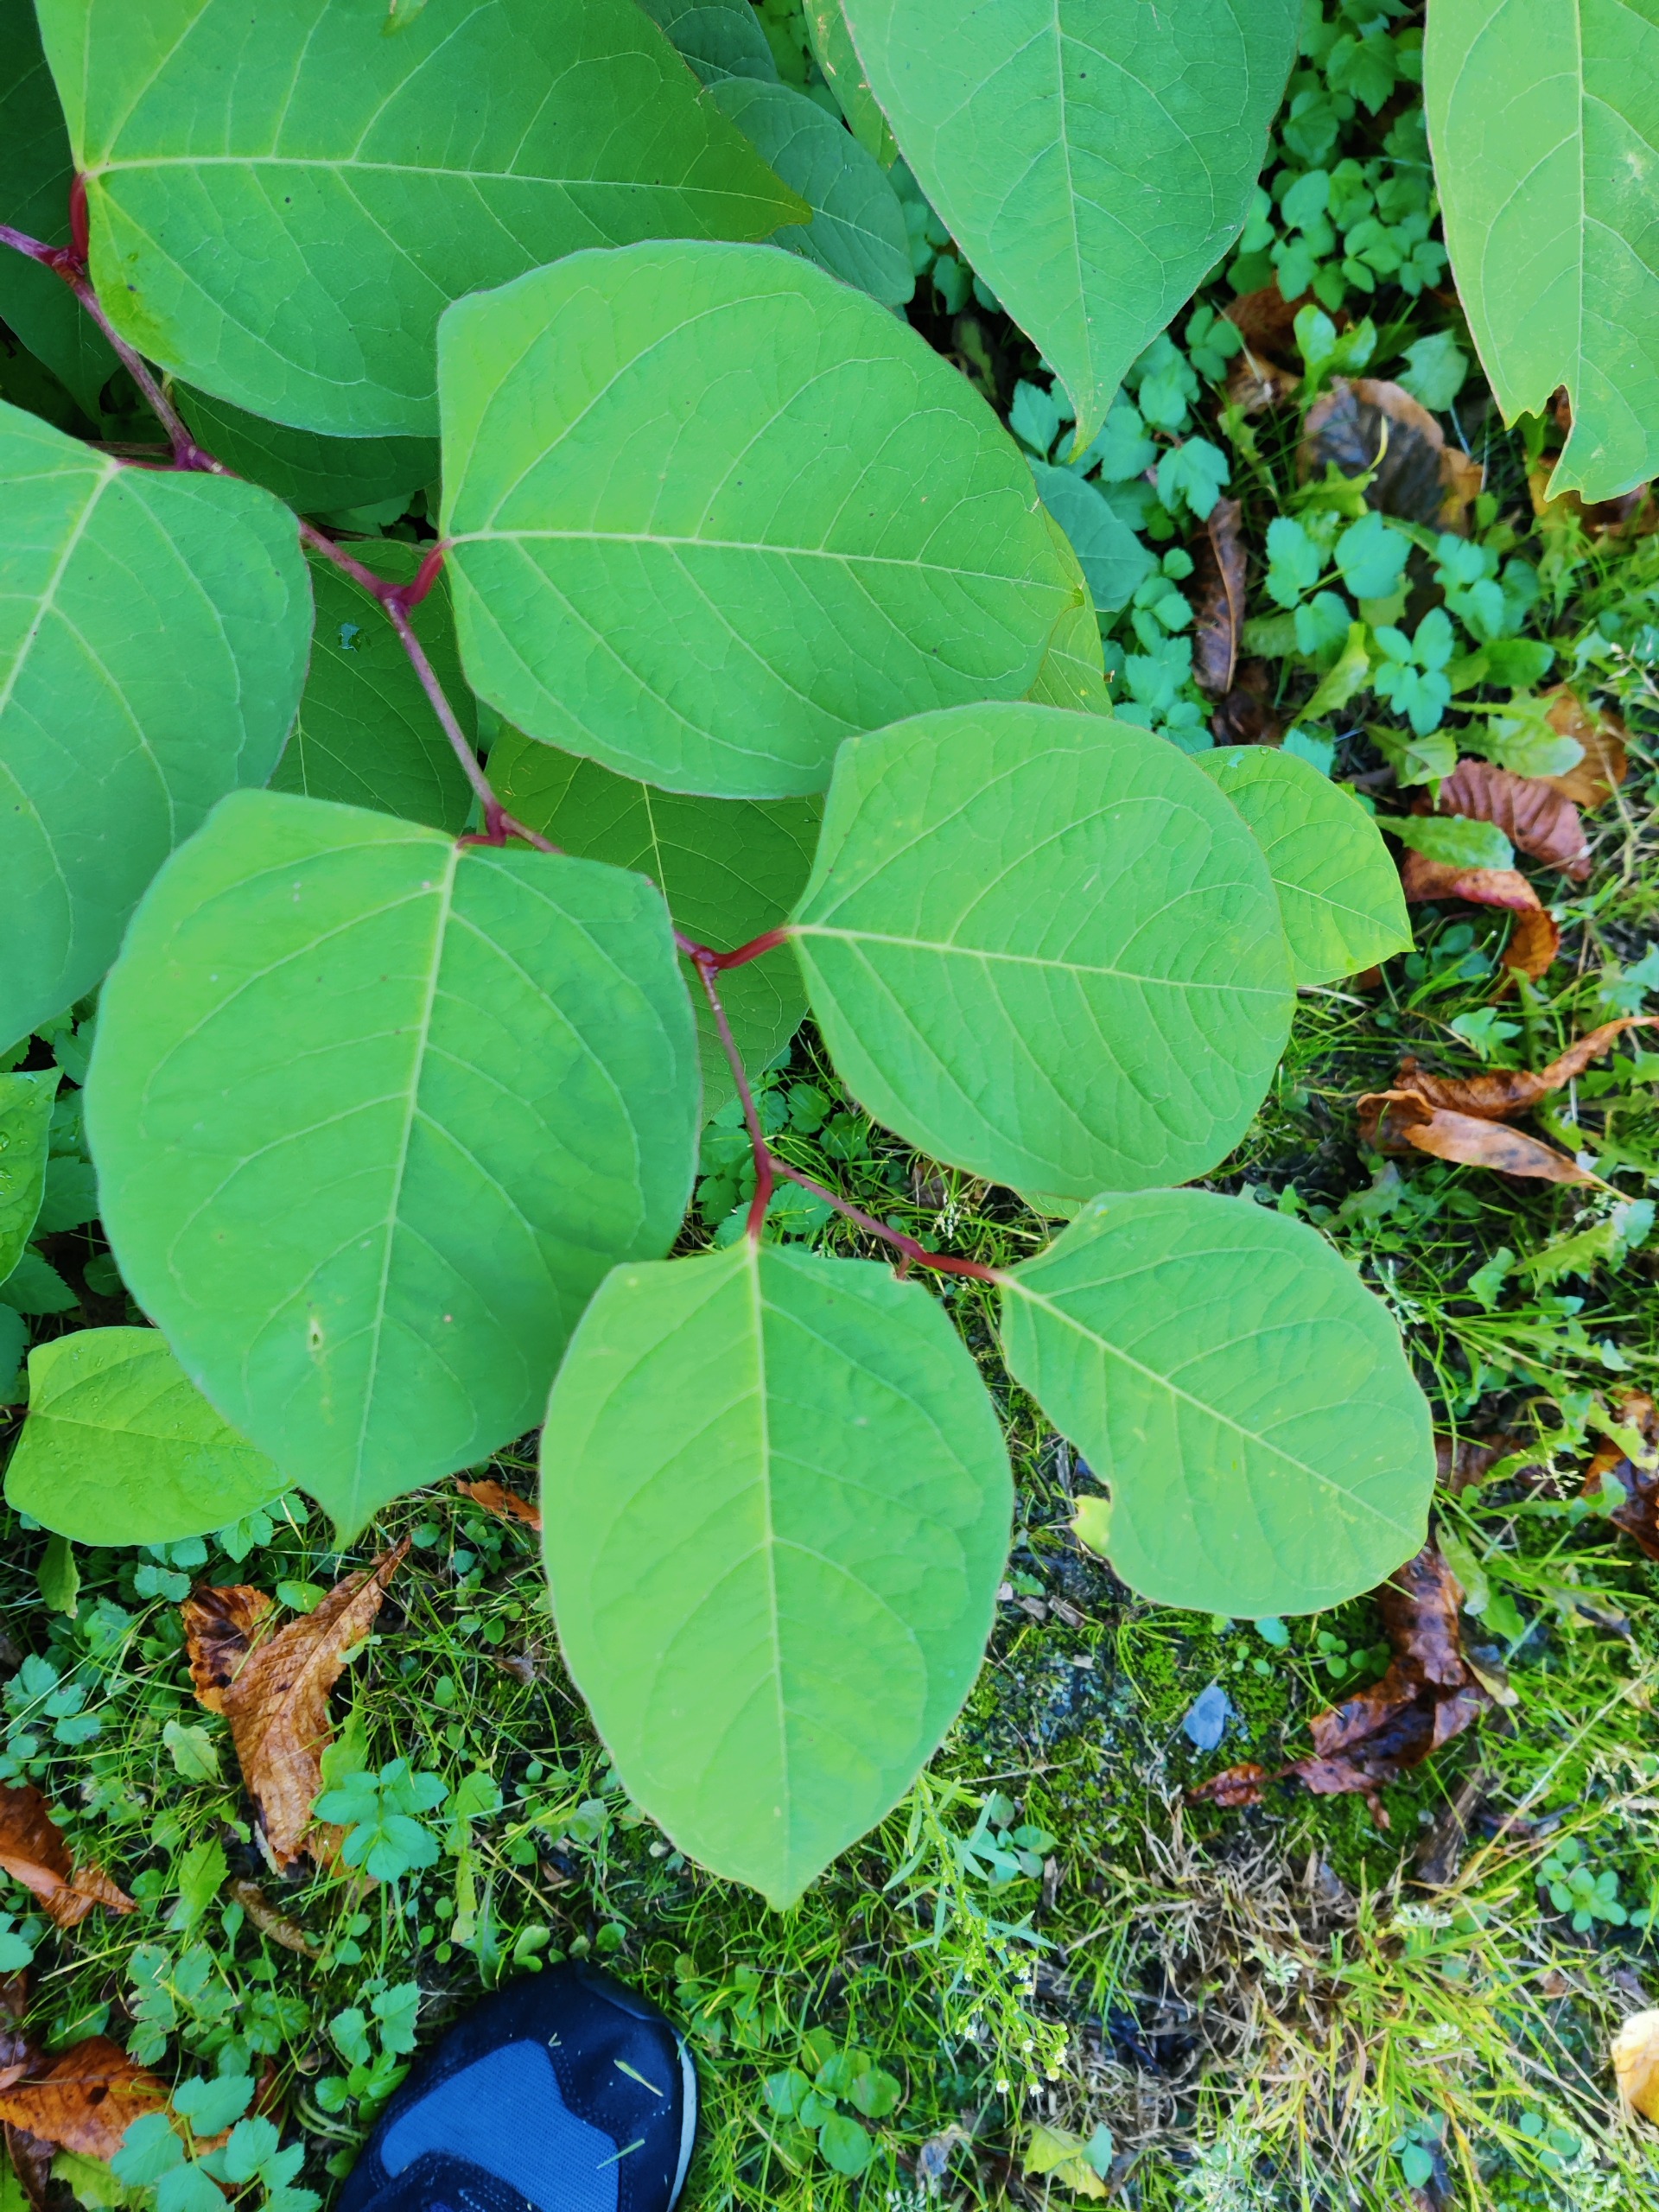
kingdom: Plantae
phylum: Tracheophyta
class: Magnoliopsida
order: Caryophyllales
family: Polygonaceae
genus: Reynoutria
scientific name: Reynoutria japonica
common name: Japan-pileurt
